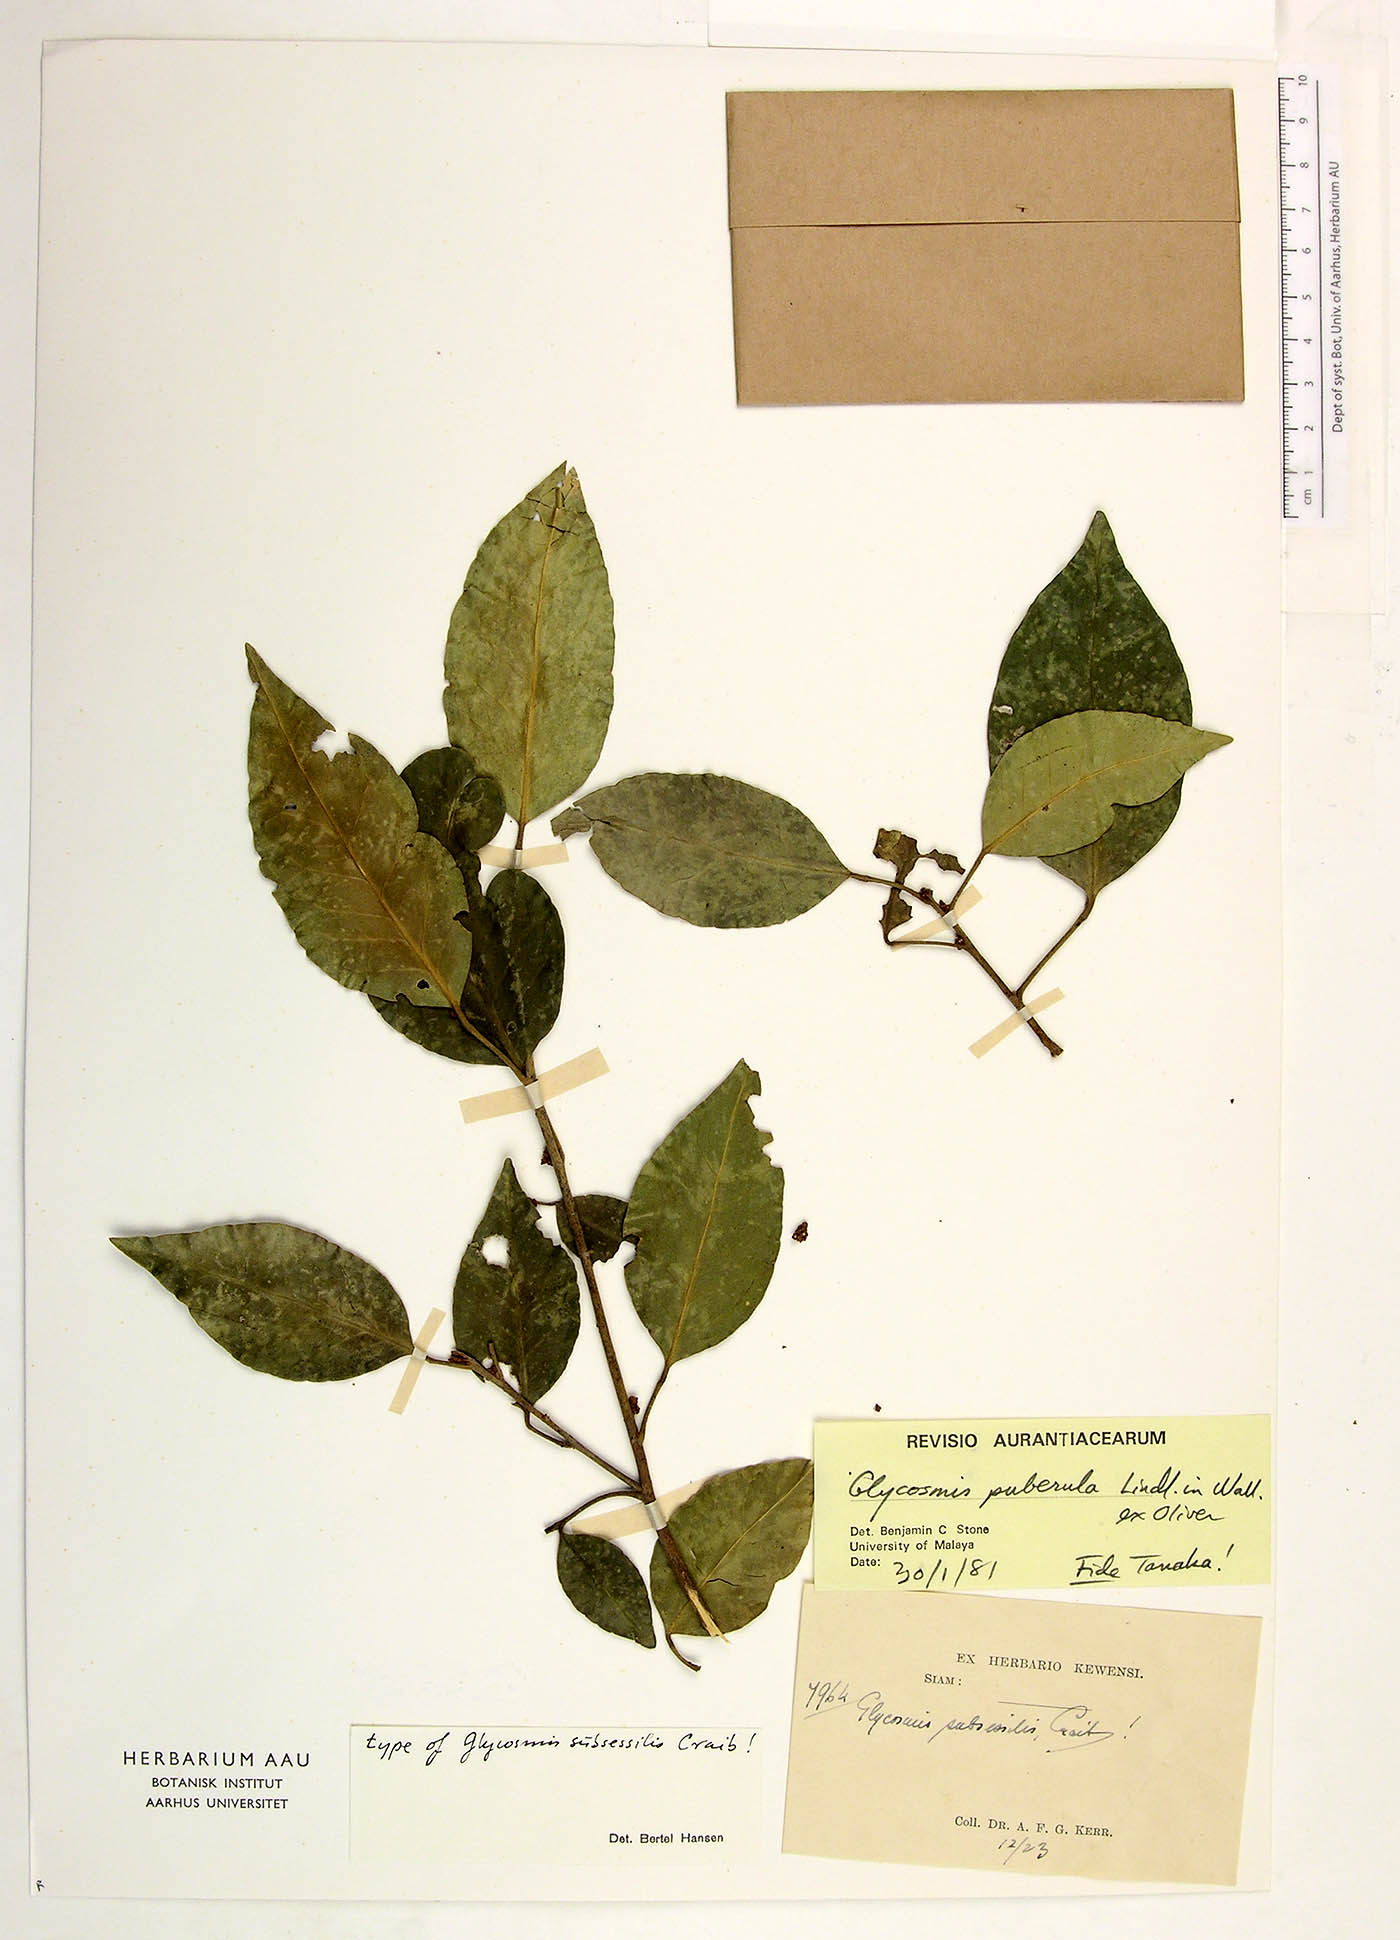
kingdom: Plantae
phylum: Tracheophyta
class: Magnoliopsida
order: Sapindales
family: Rutaceae
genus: Glycosmis
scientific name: Glycosmis puberula
